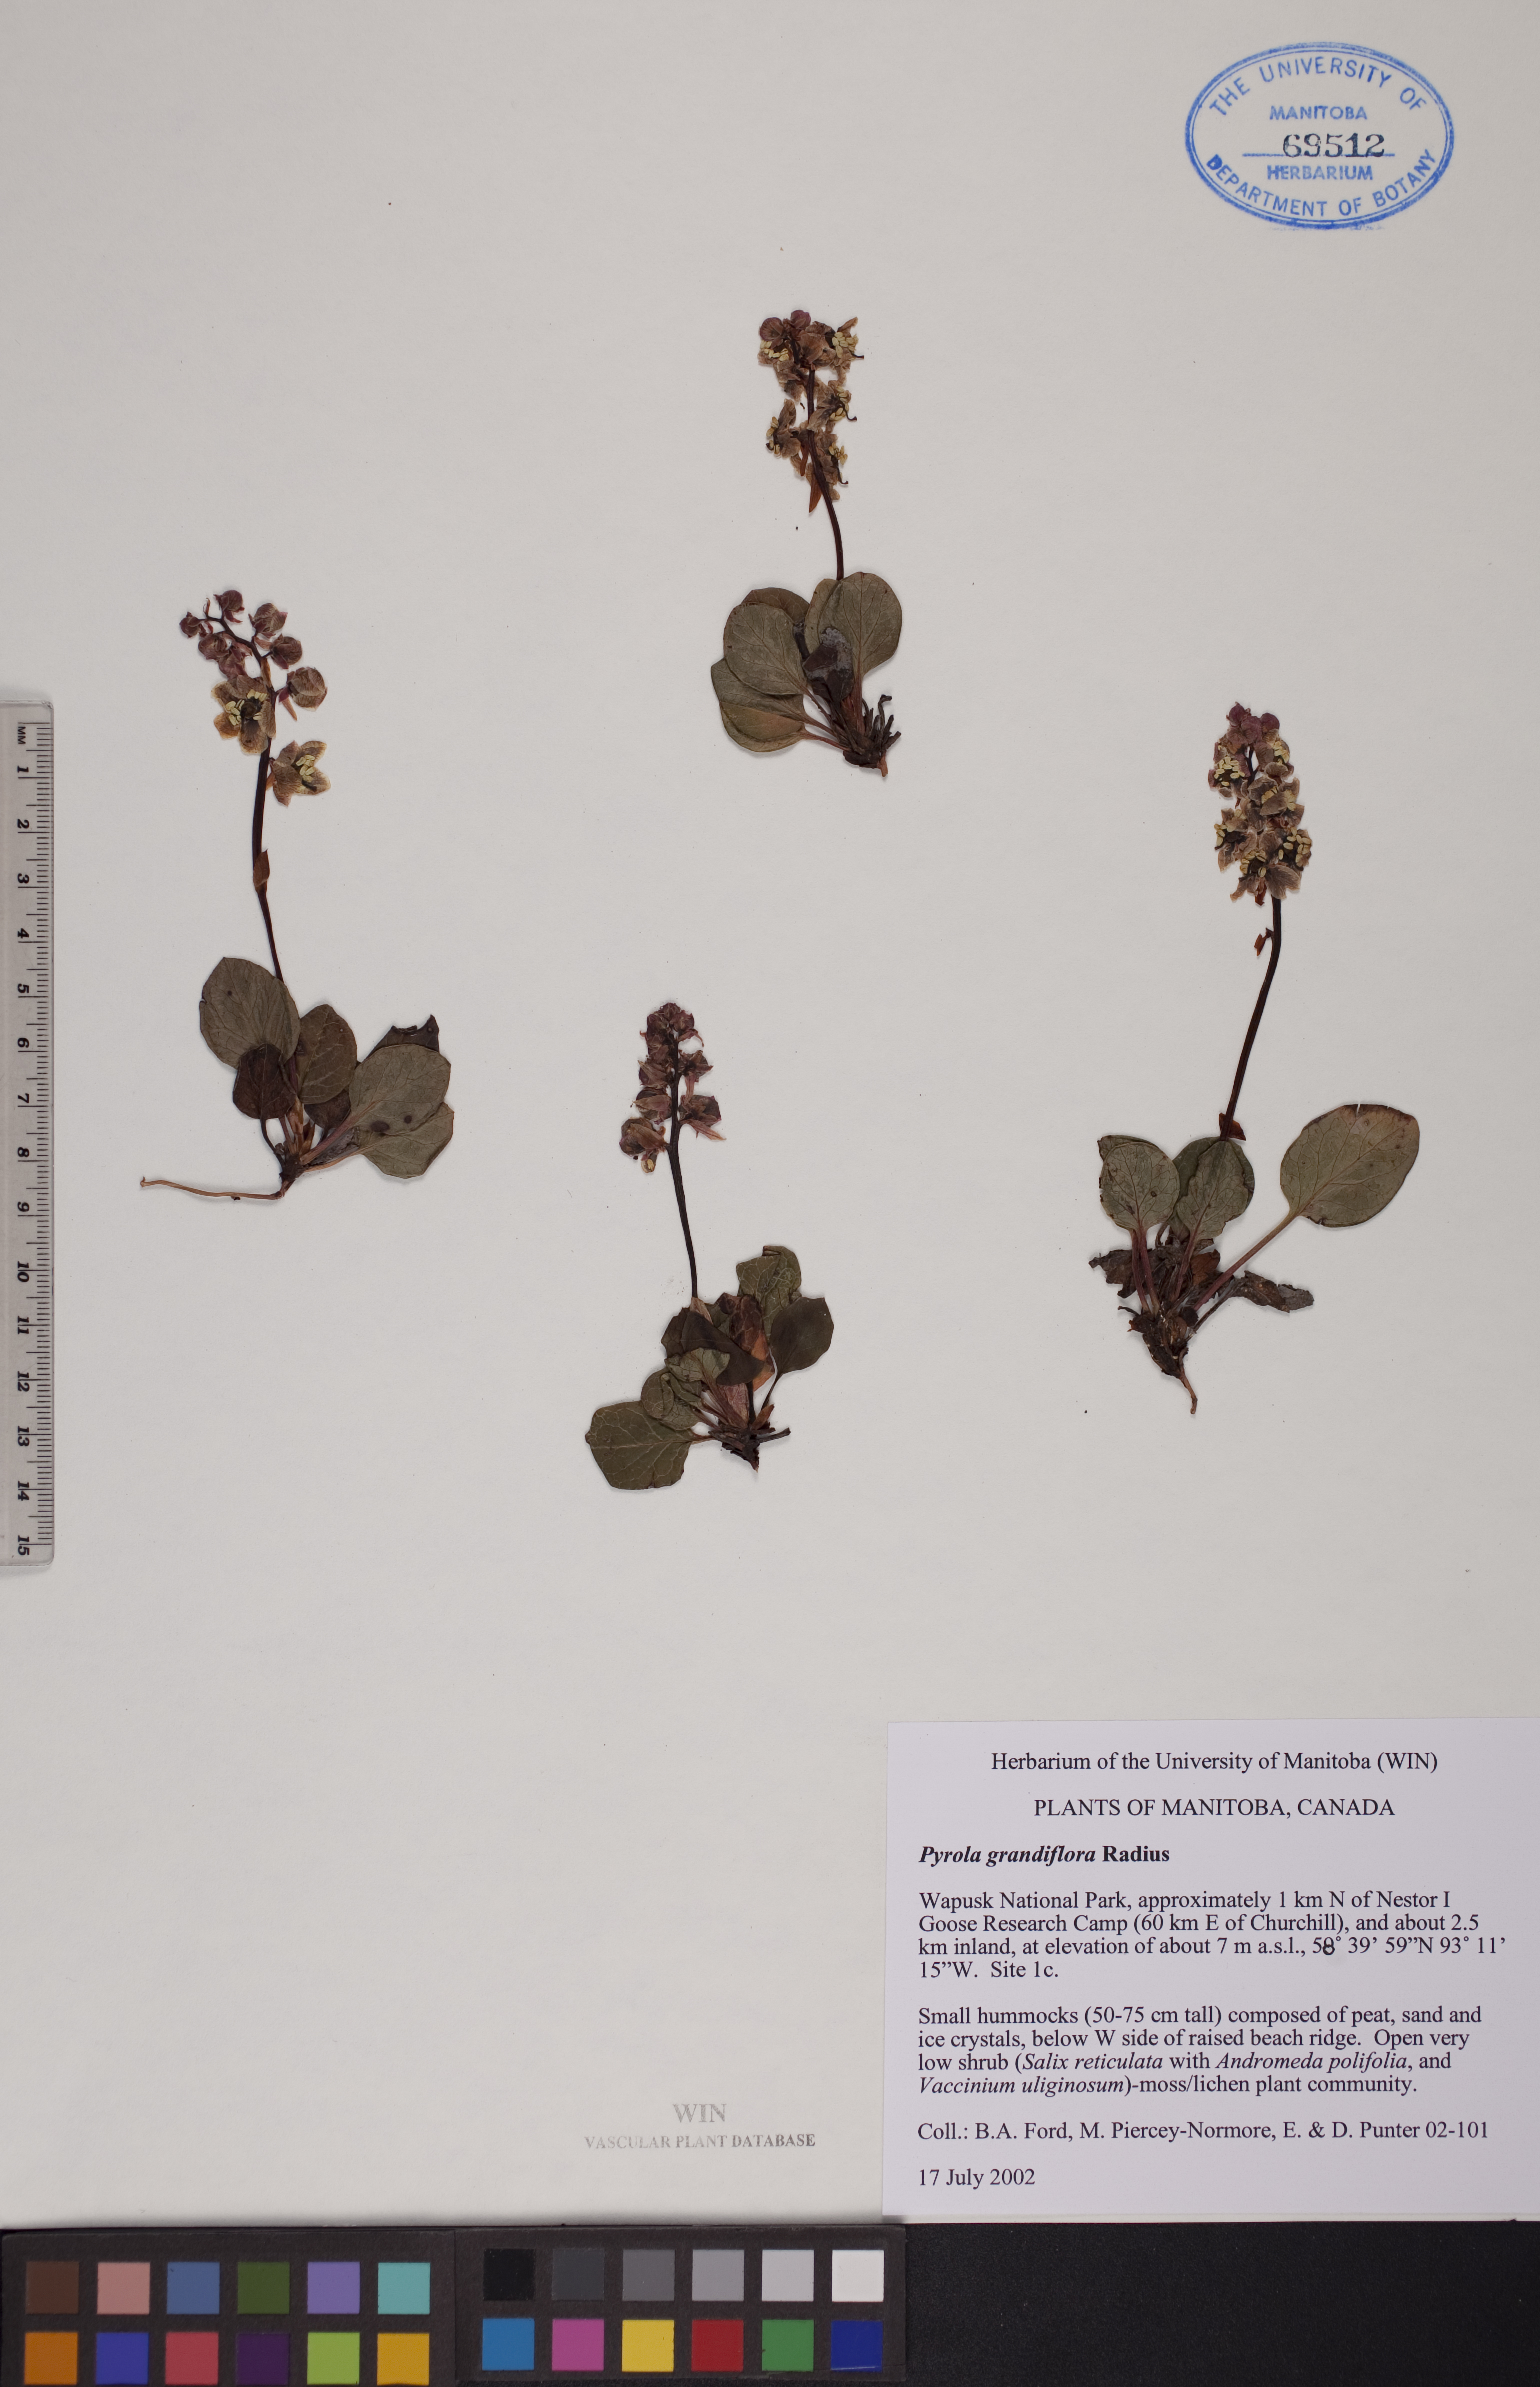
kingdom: Plantae
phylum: Tracheophyta
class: Magnoliopsida
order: Ericales
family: Ericaceae
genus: Pyrola
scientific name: Pyrola grandiflora
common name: Arctic pyrola
